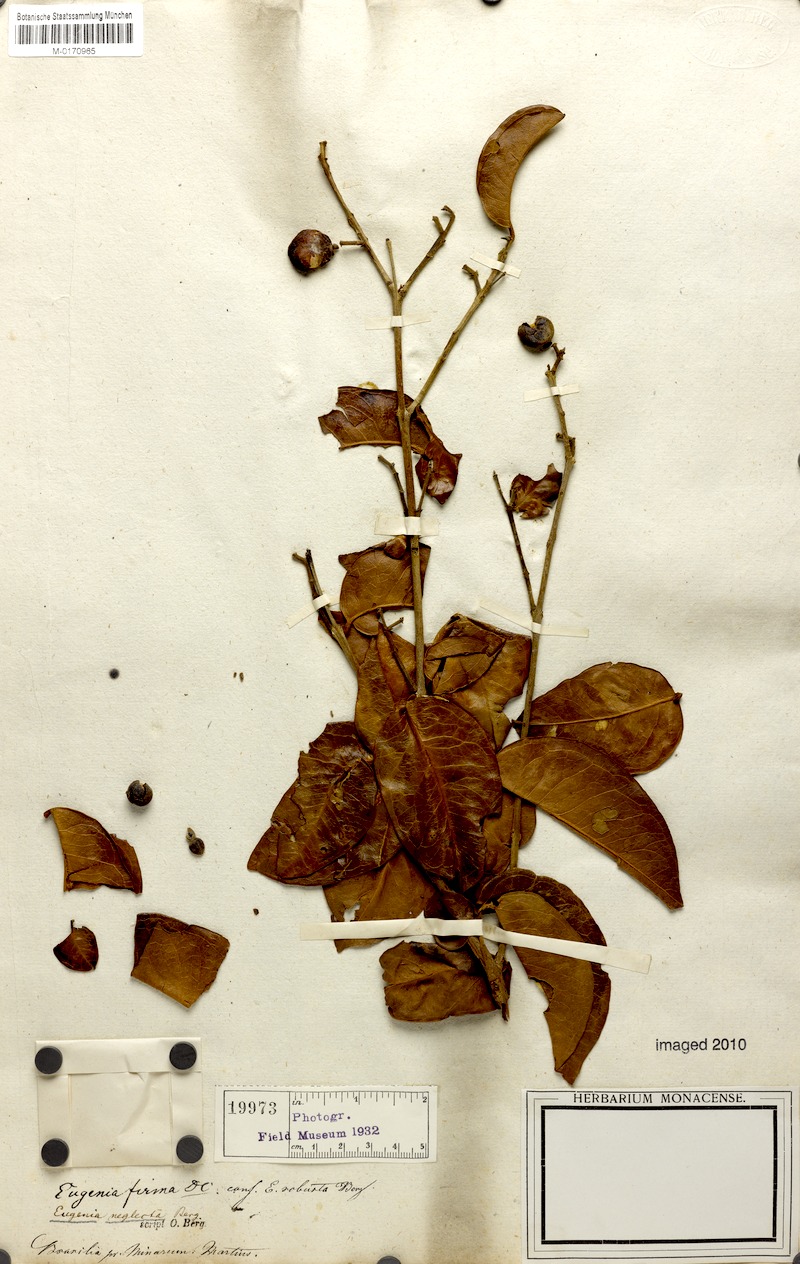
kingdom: Plantae
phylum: Tracheophyta
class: Magnoliopsida
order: Myrtales
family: Myrtaceae
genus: Eugenia
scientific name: Eugenia capparidifolia
